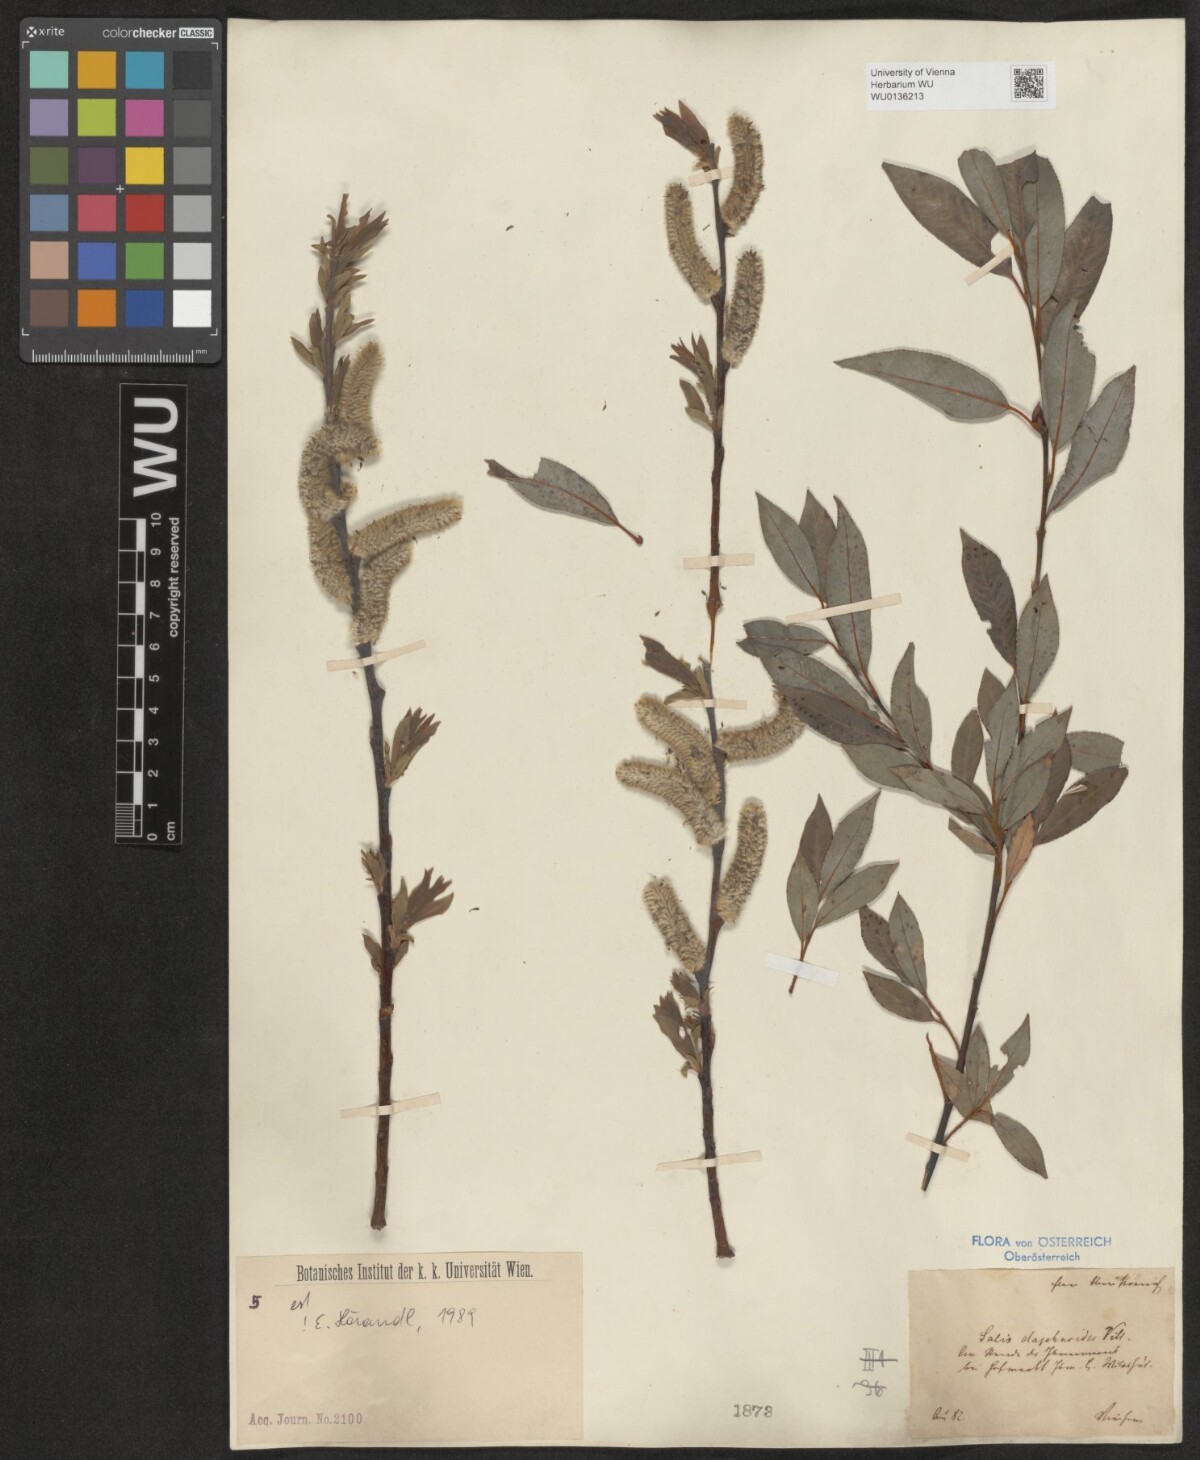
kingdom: Plantae
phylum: Tracheophyta
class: Magnoliopsida
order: Malpighiales
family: Salicaceae
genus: Salix
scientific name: Salix daphnoides
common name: European violet-willow
